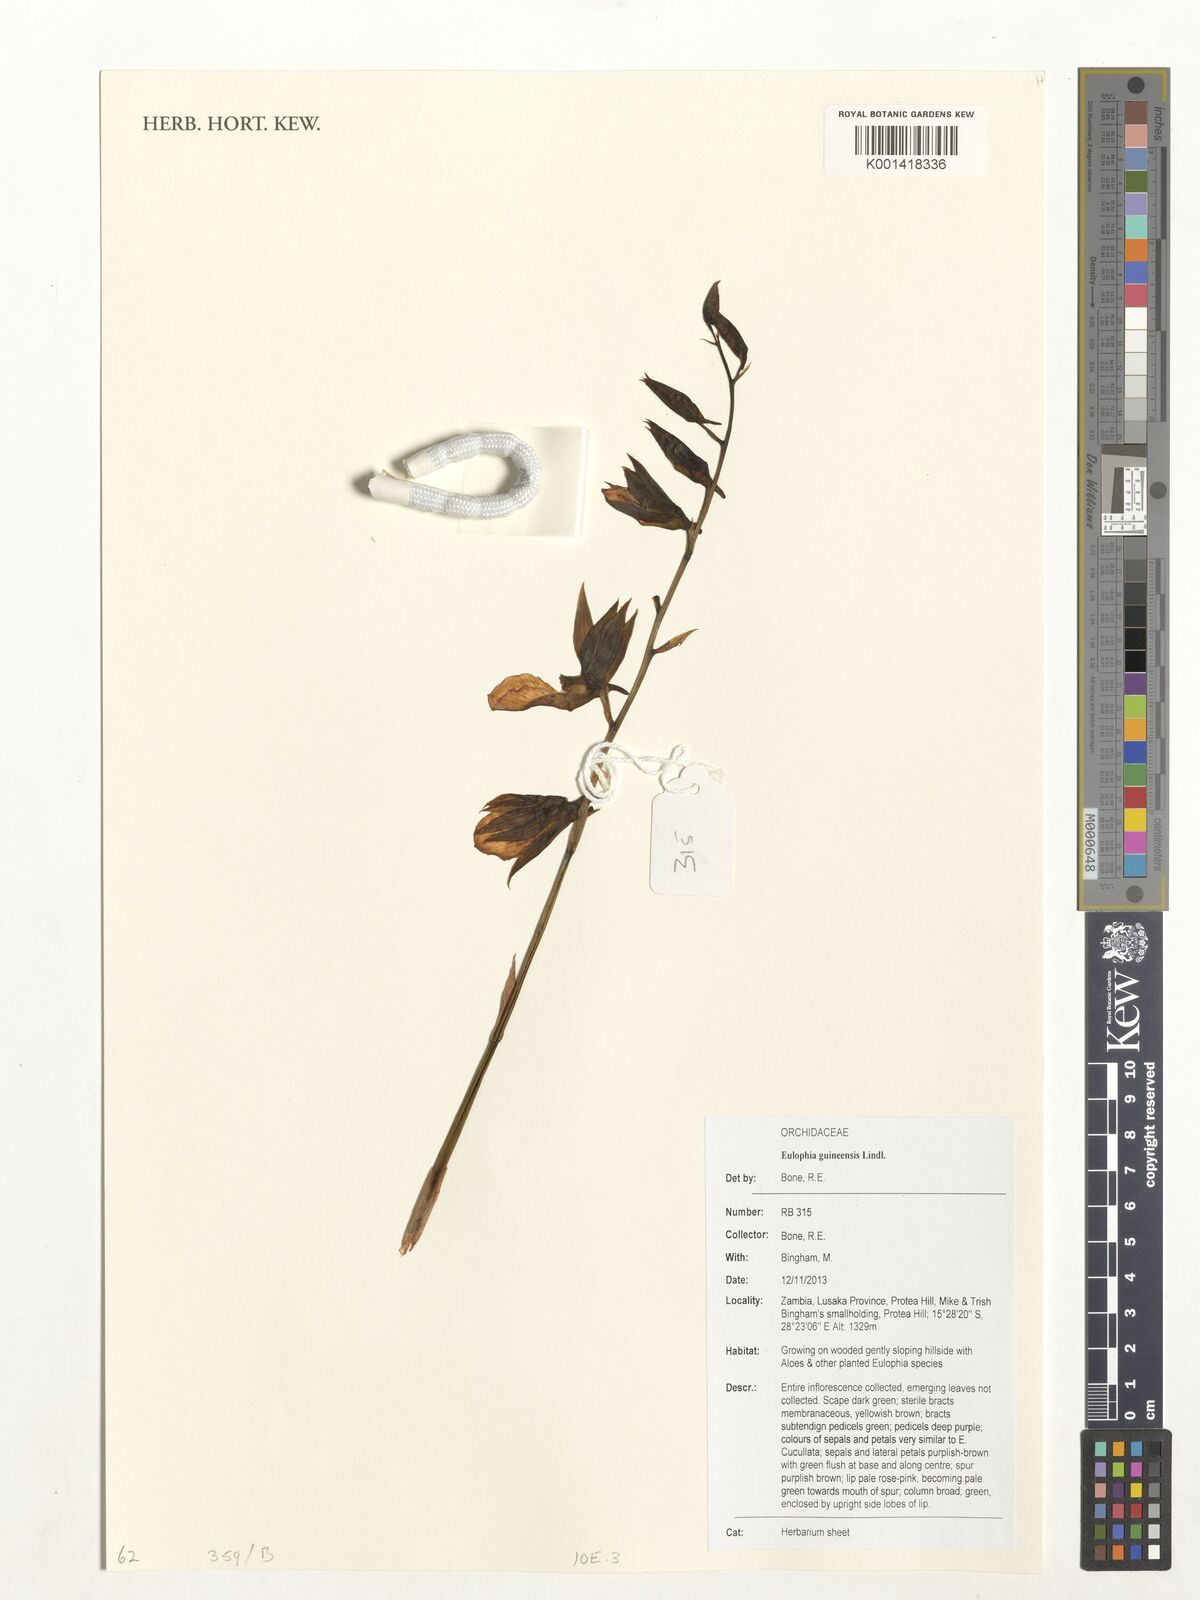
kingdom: Plantae
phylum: Tracheophyta
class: Liliopsida
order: Asparagales
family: Orchidaceae
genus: Eulophia
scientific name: Eulophia guineensis
